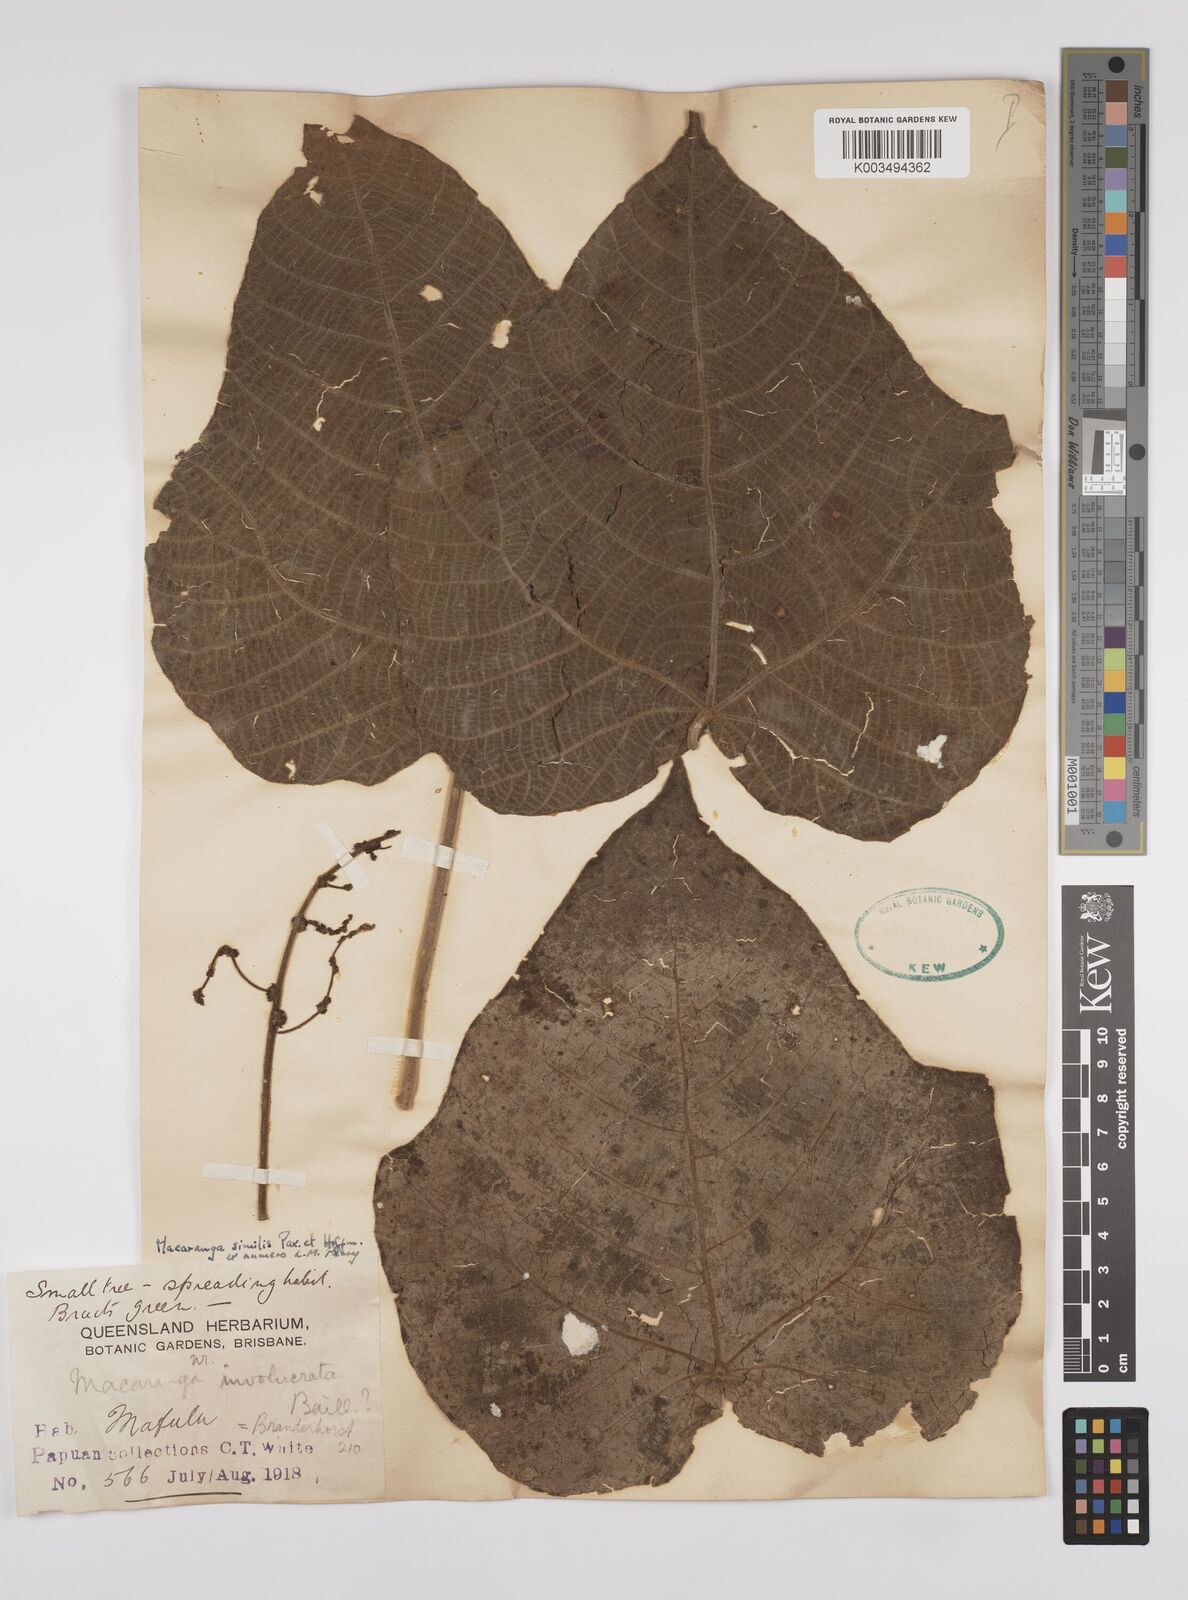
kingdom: Plantae
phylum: Tracheophyta
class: Magnoliopsida
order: Malpighiales
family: Euphorbiaceae
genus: Macaranga
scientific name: Macaranga similis
